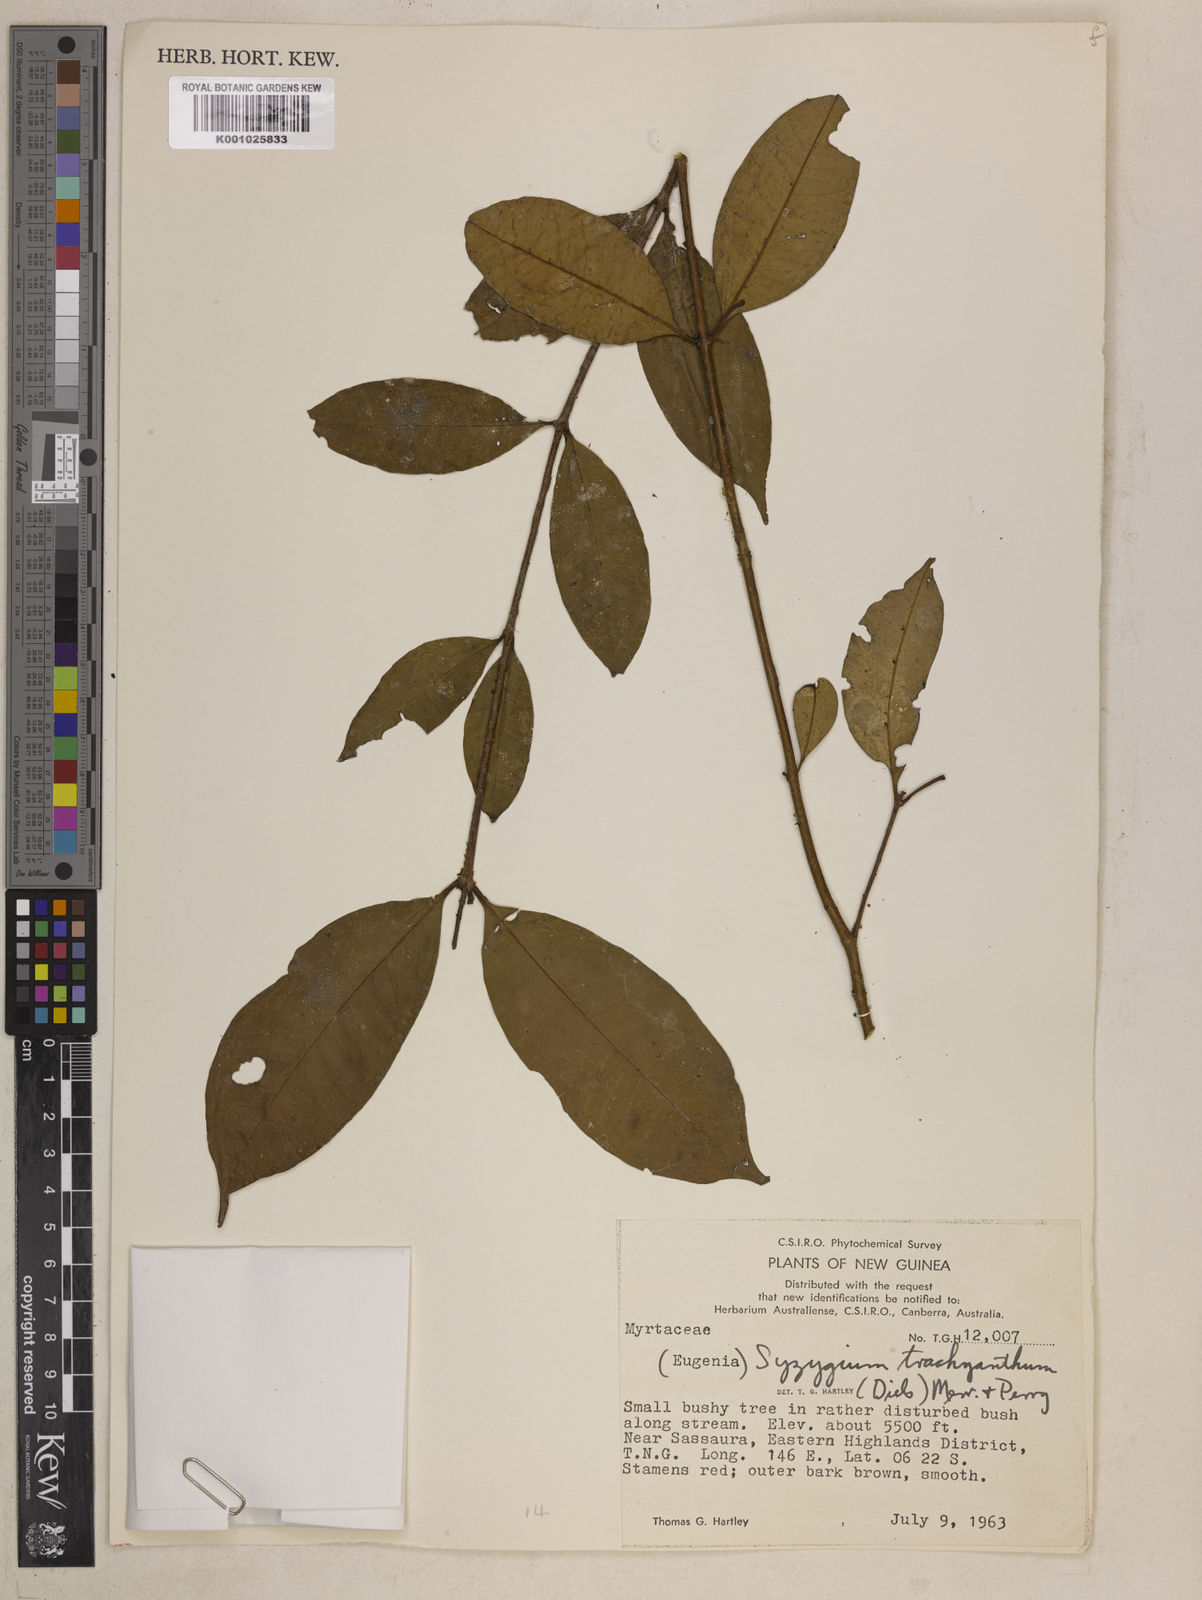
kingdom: Plantae
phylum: Tracheophyta
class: Magnoliopsida
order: Myrtales
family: Myrtaceae
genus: Syzygium
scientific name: Syzygium trachyanthum
